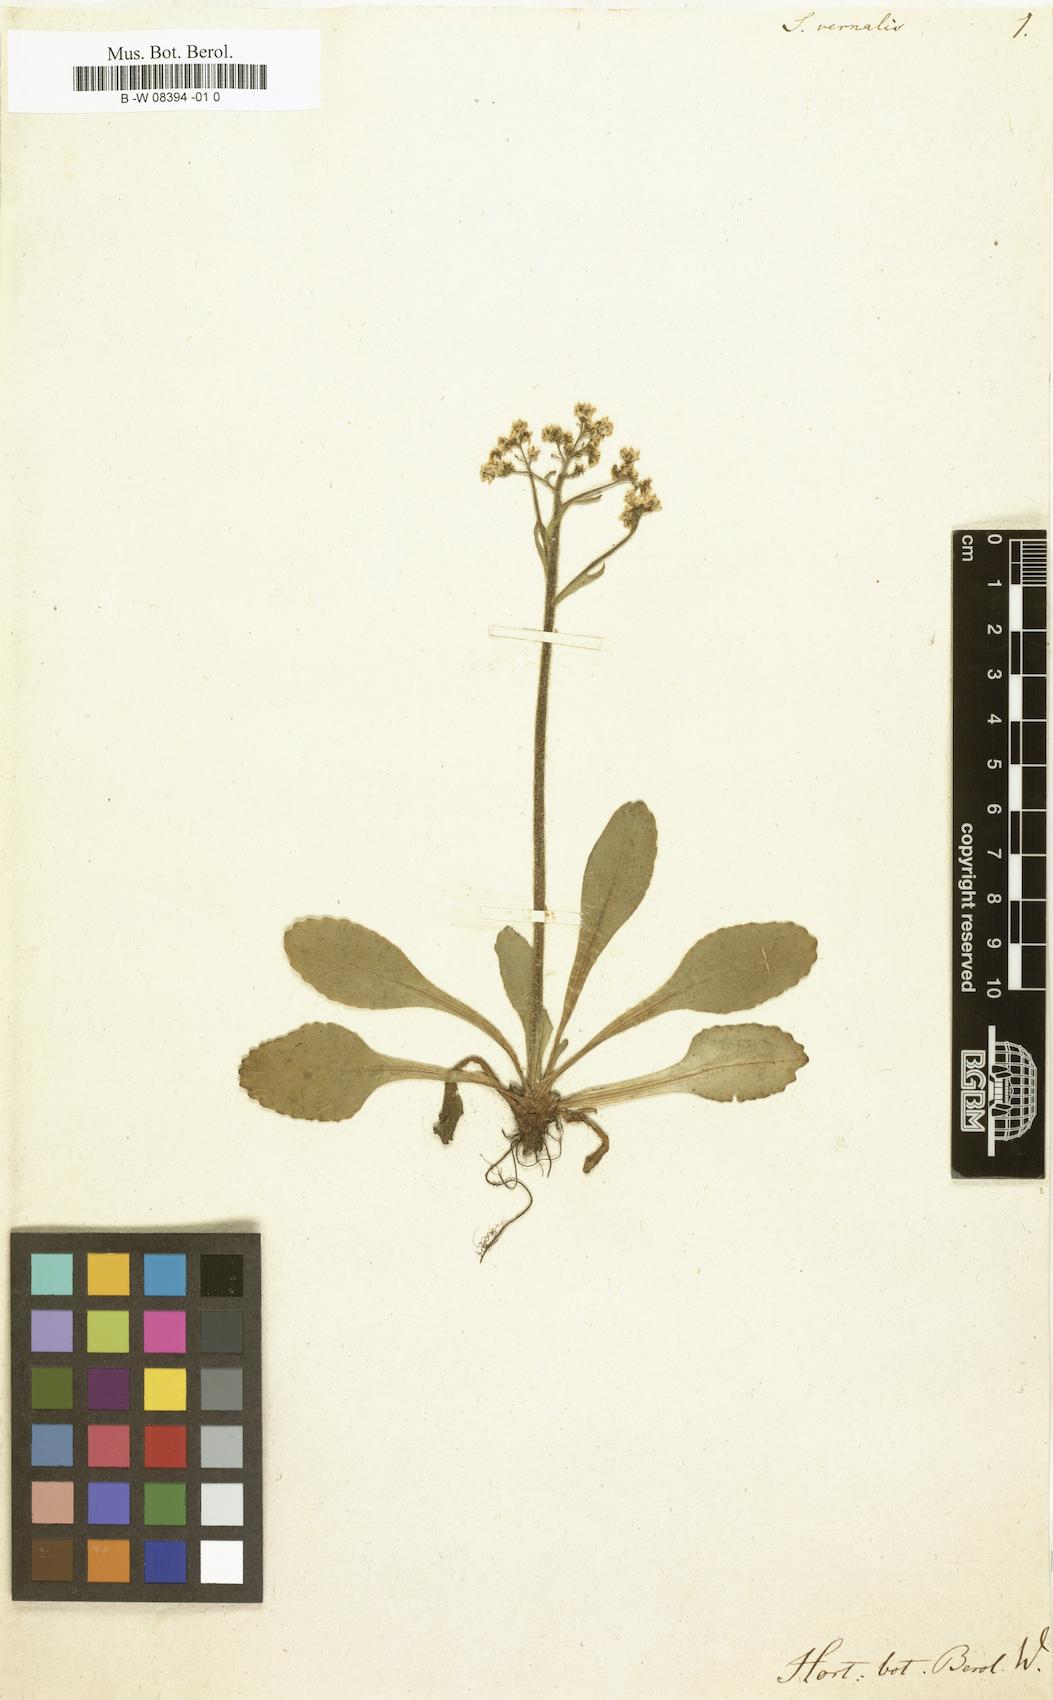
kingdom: Plantae
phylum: Tracheophyta
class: Magnoliopsida
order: Saxifragales
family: Saxifragaceae
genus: Micranthes
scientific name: Micranthes virginiensis
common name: Early saxifrage
